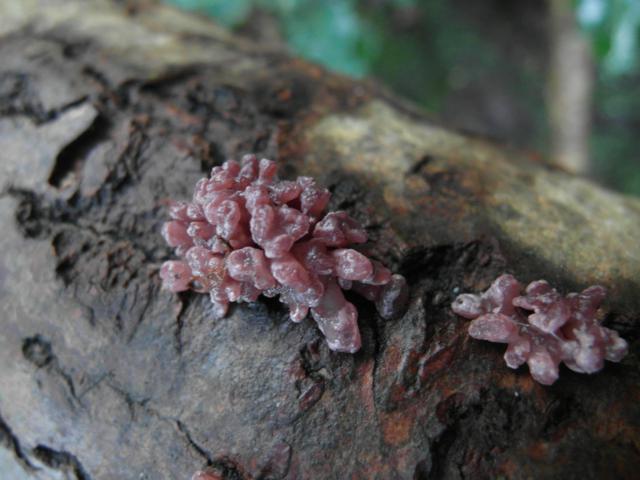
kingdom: Fungi
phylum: Ascomycota
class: Leotiomycetes
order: Helotiales
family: Gelatinodiscaceae
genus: Ascocoryne
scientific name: Ascocoryne sarcoides
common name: rødlilla sejskive
